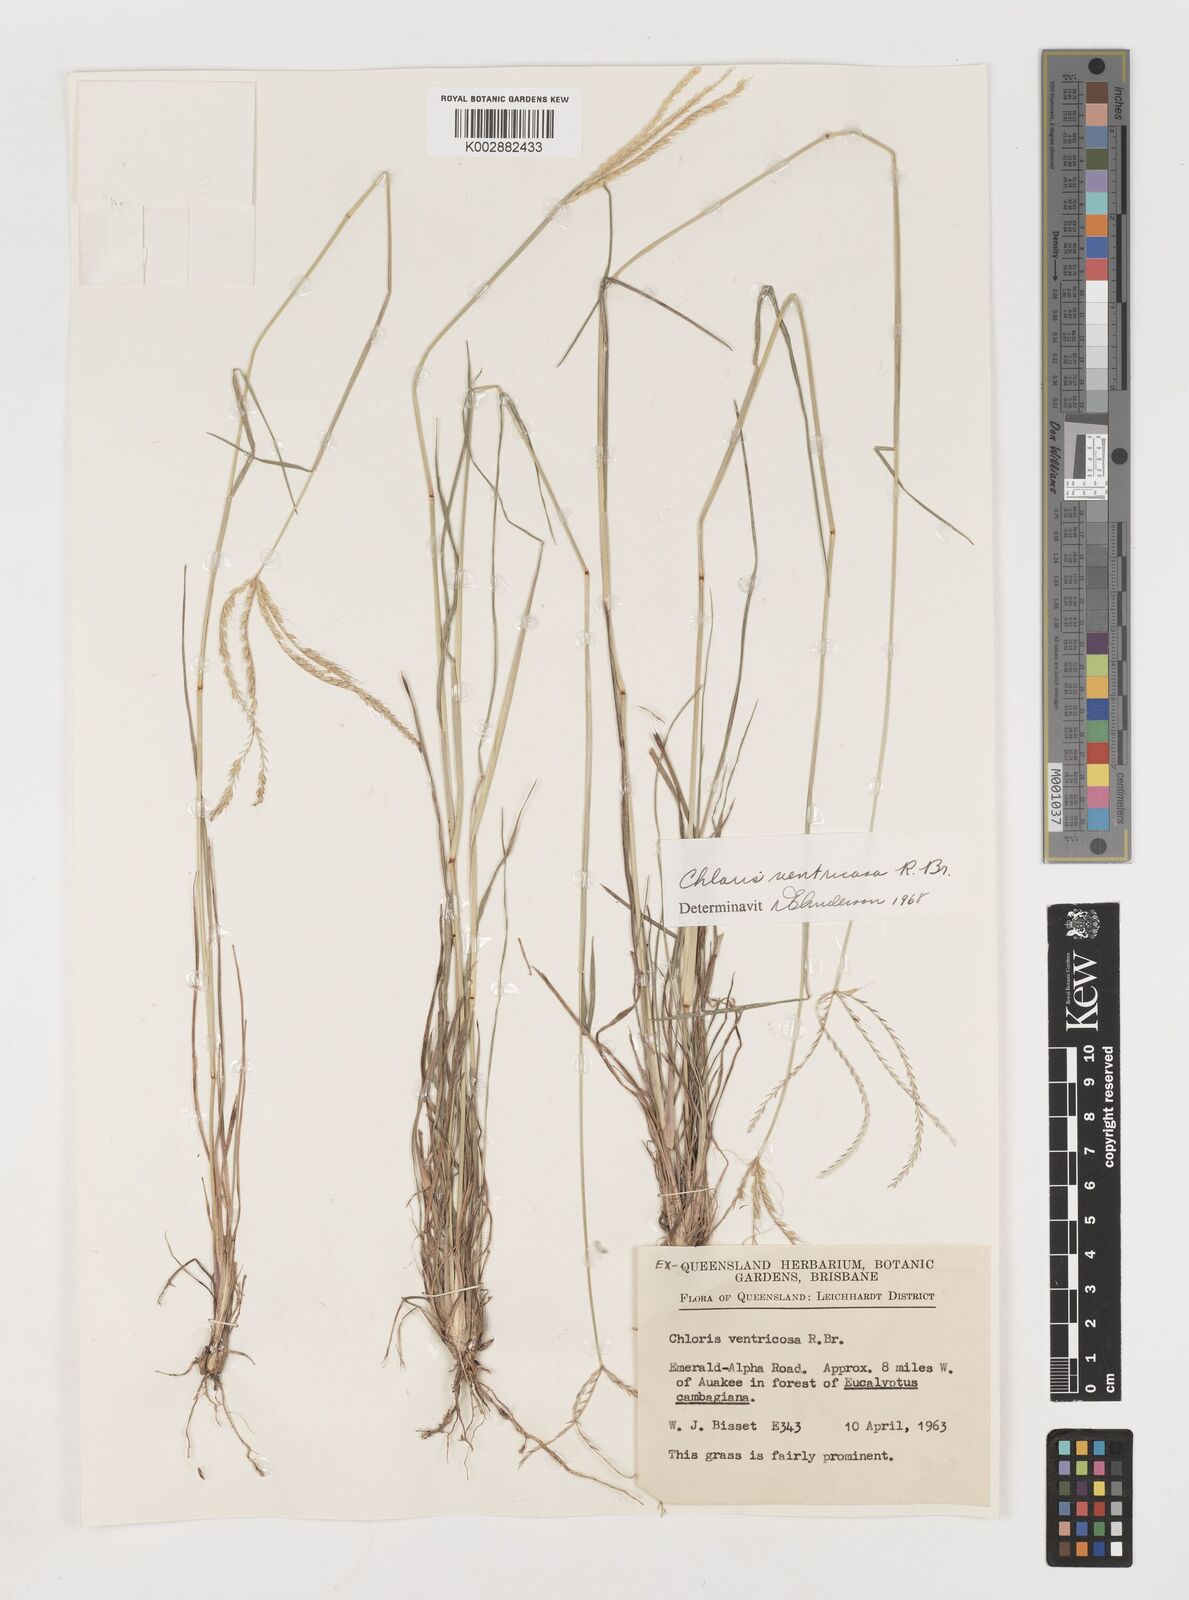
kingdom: Plantae
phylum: Tracheophyta
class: Liliopsida
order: Poales
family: Poaceae
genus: Chloris
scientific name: Chloris ventricosa
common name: Australian windmill grass
